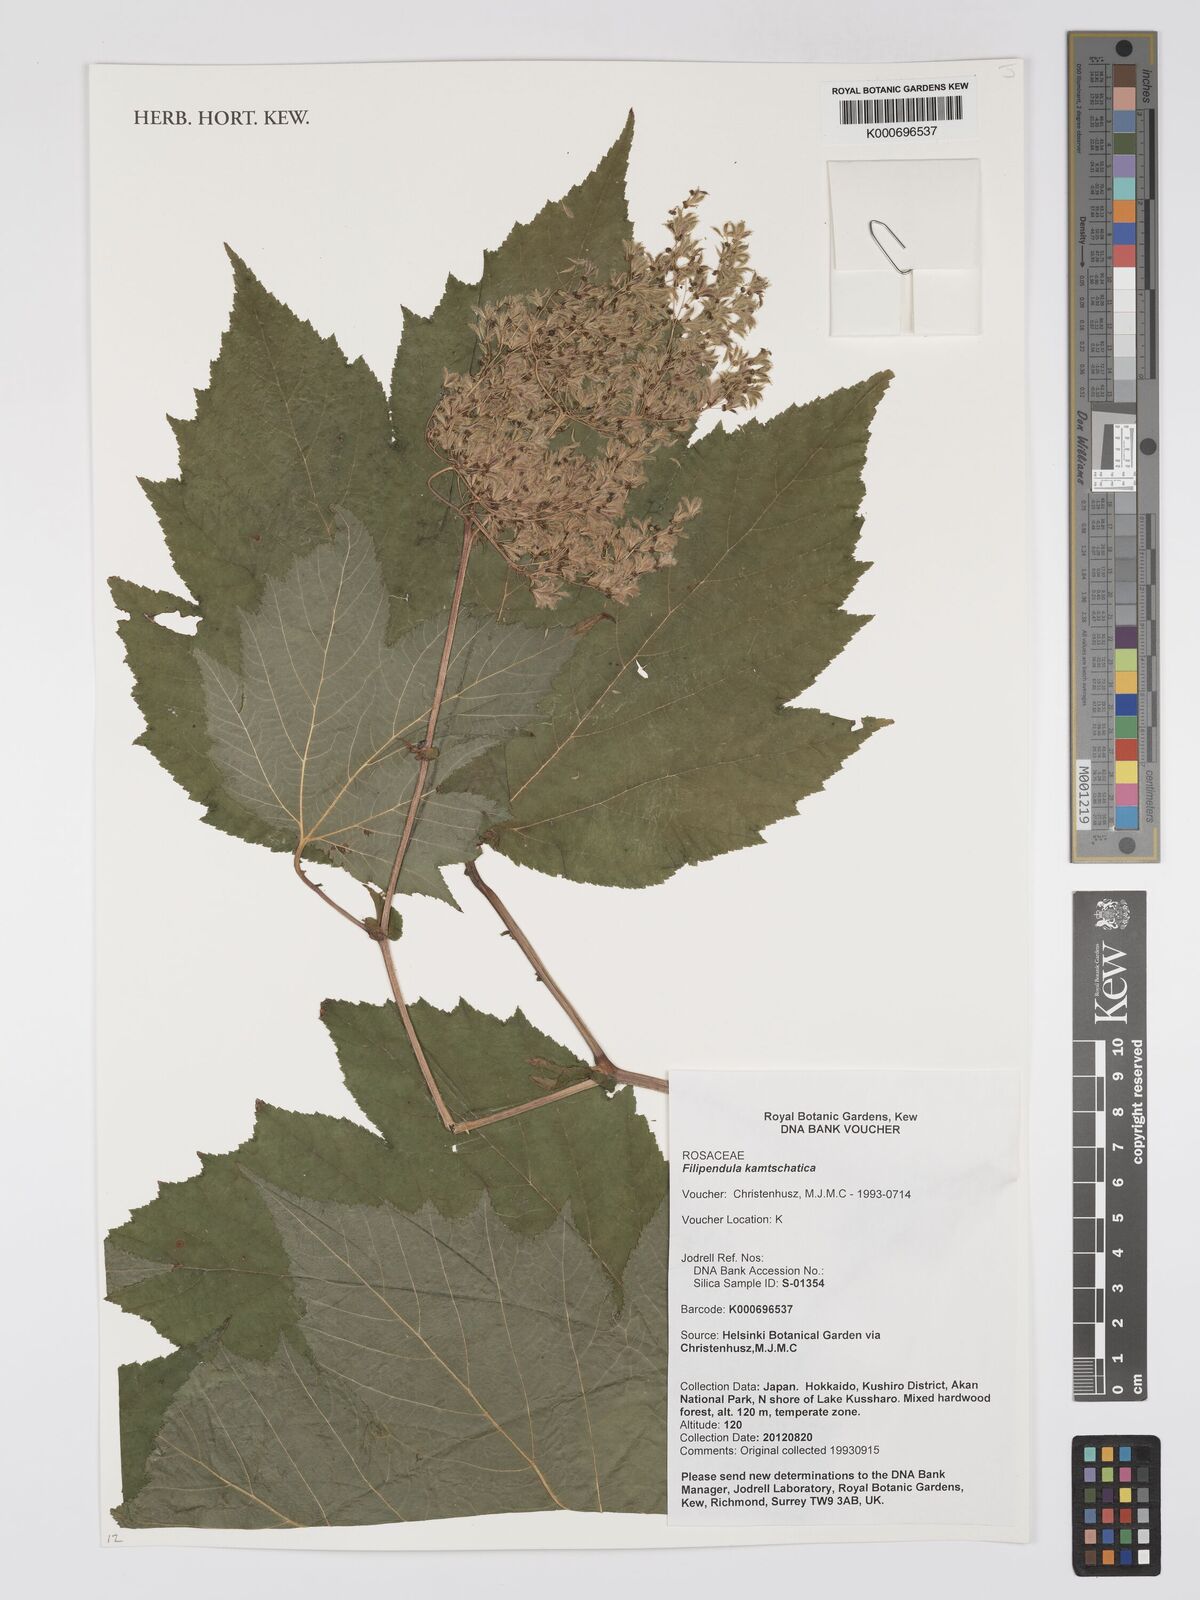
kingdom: Plantae
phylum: Tracheophyta
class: Magnoliopsida
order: Rosales
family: Rosaceae
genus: Filipendula
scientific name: Filipendula
